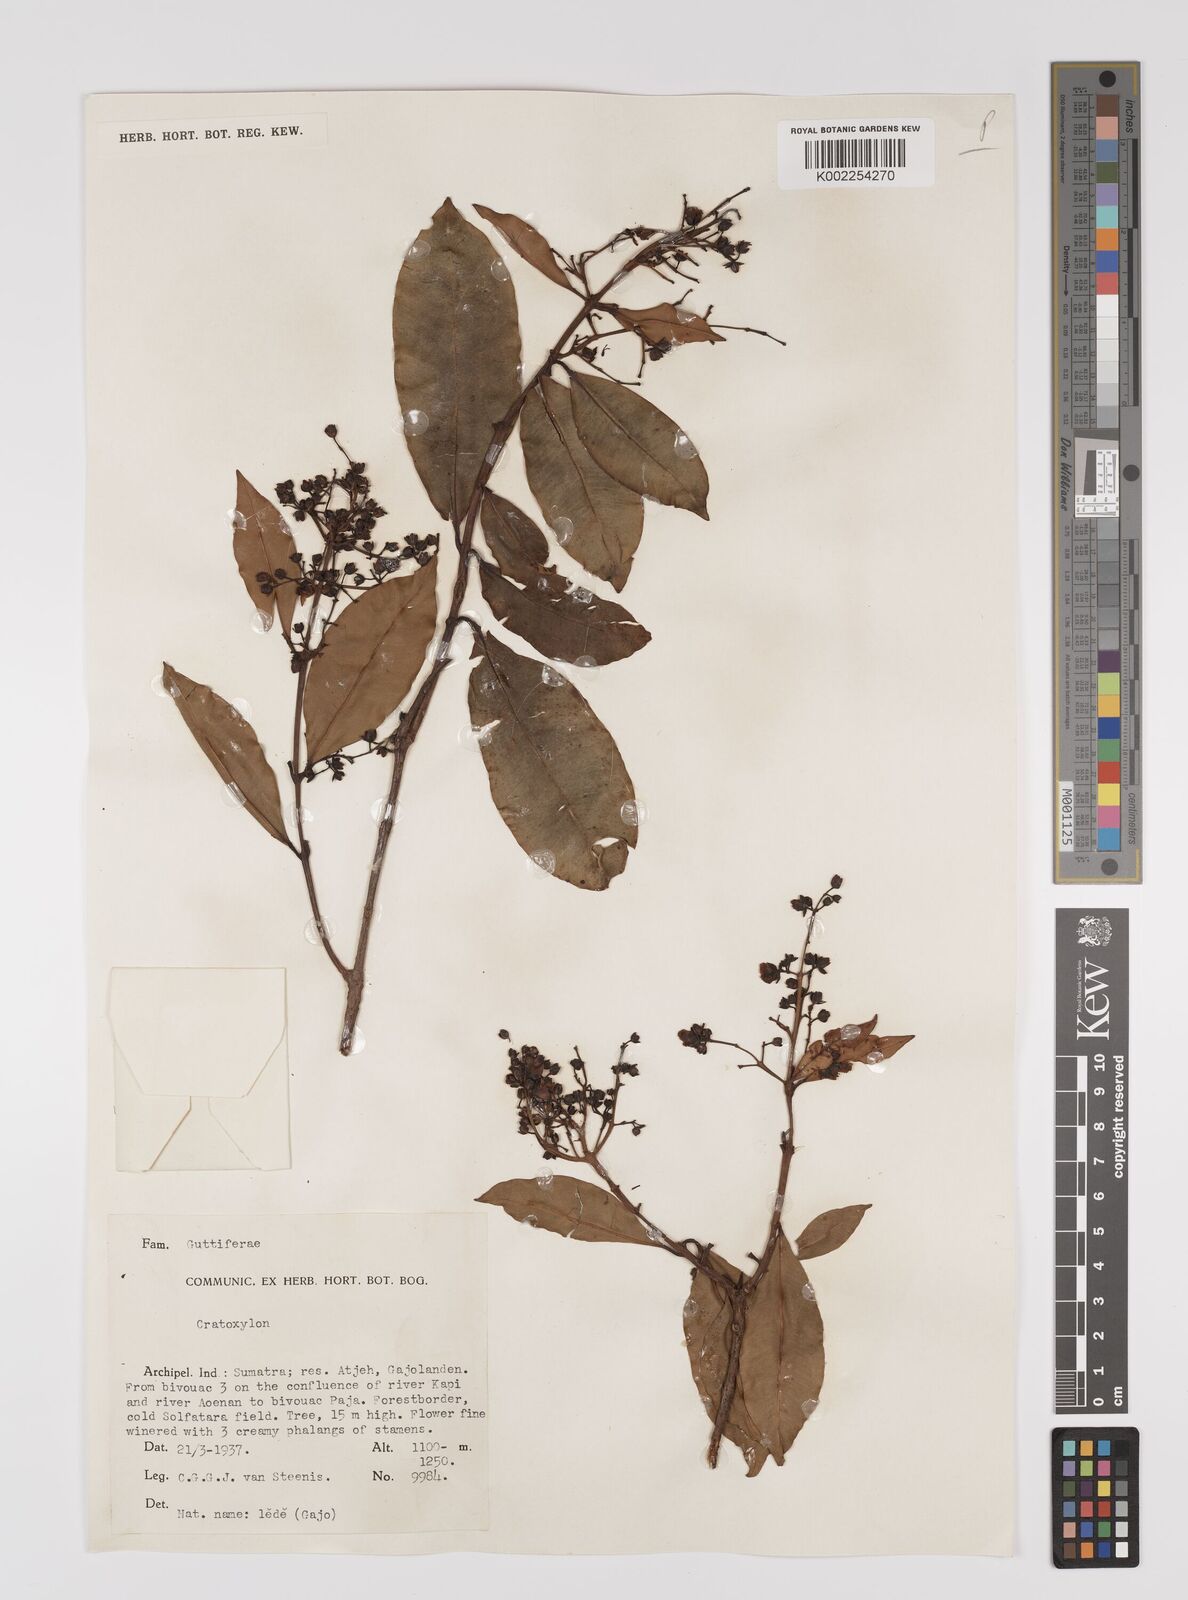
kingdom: Plantae
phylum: Tracheophyta
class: Magnoliopsida
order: Malpighiales
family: Hypericaceae
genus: Cratoxylum
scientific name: Cratoxylum
